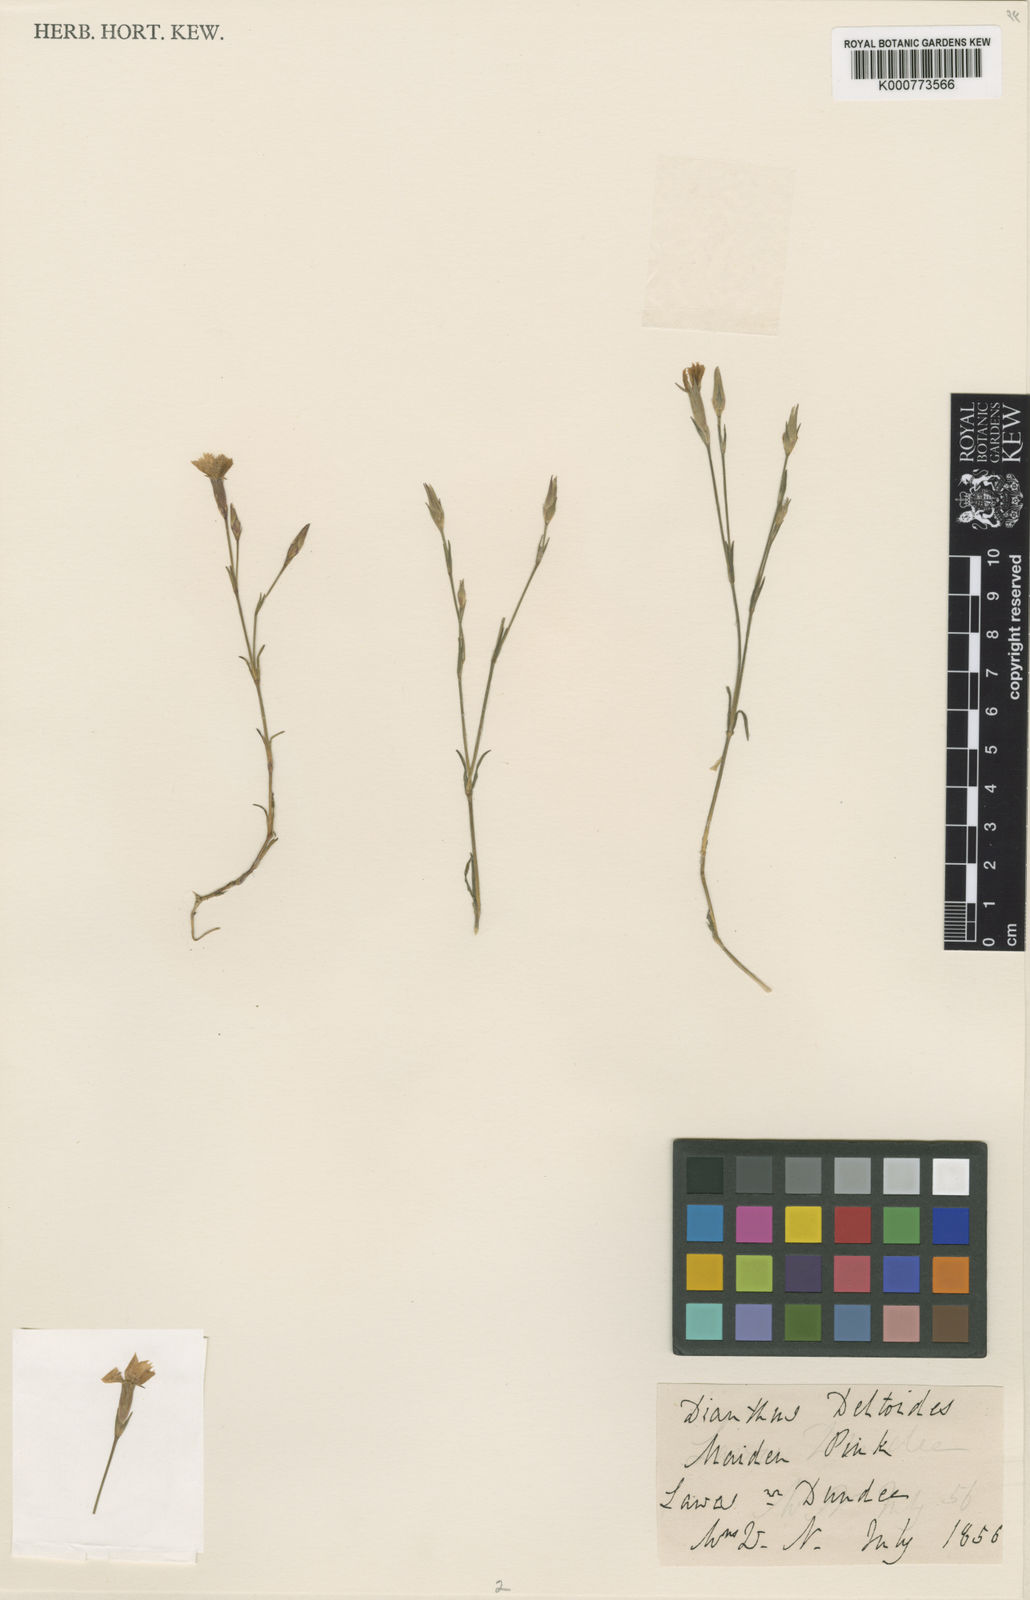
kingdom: Plantae
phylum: Tracheophyta
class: Magnoliopsida
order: Caryophyllales
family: Caryophyllaceae
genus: Dianthus
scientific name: Dianthus deltoides
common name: Maiden pink
